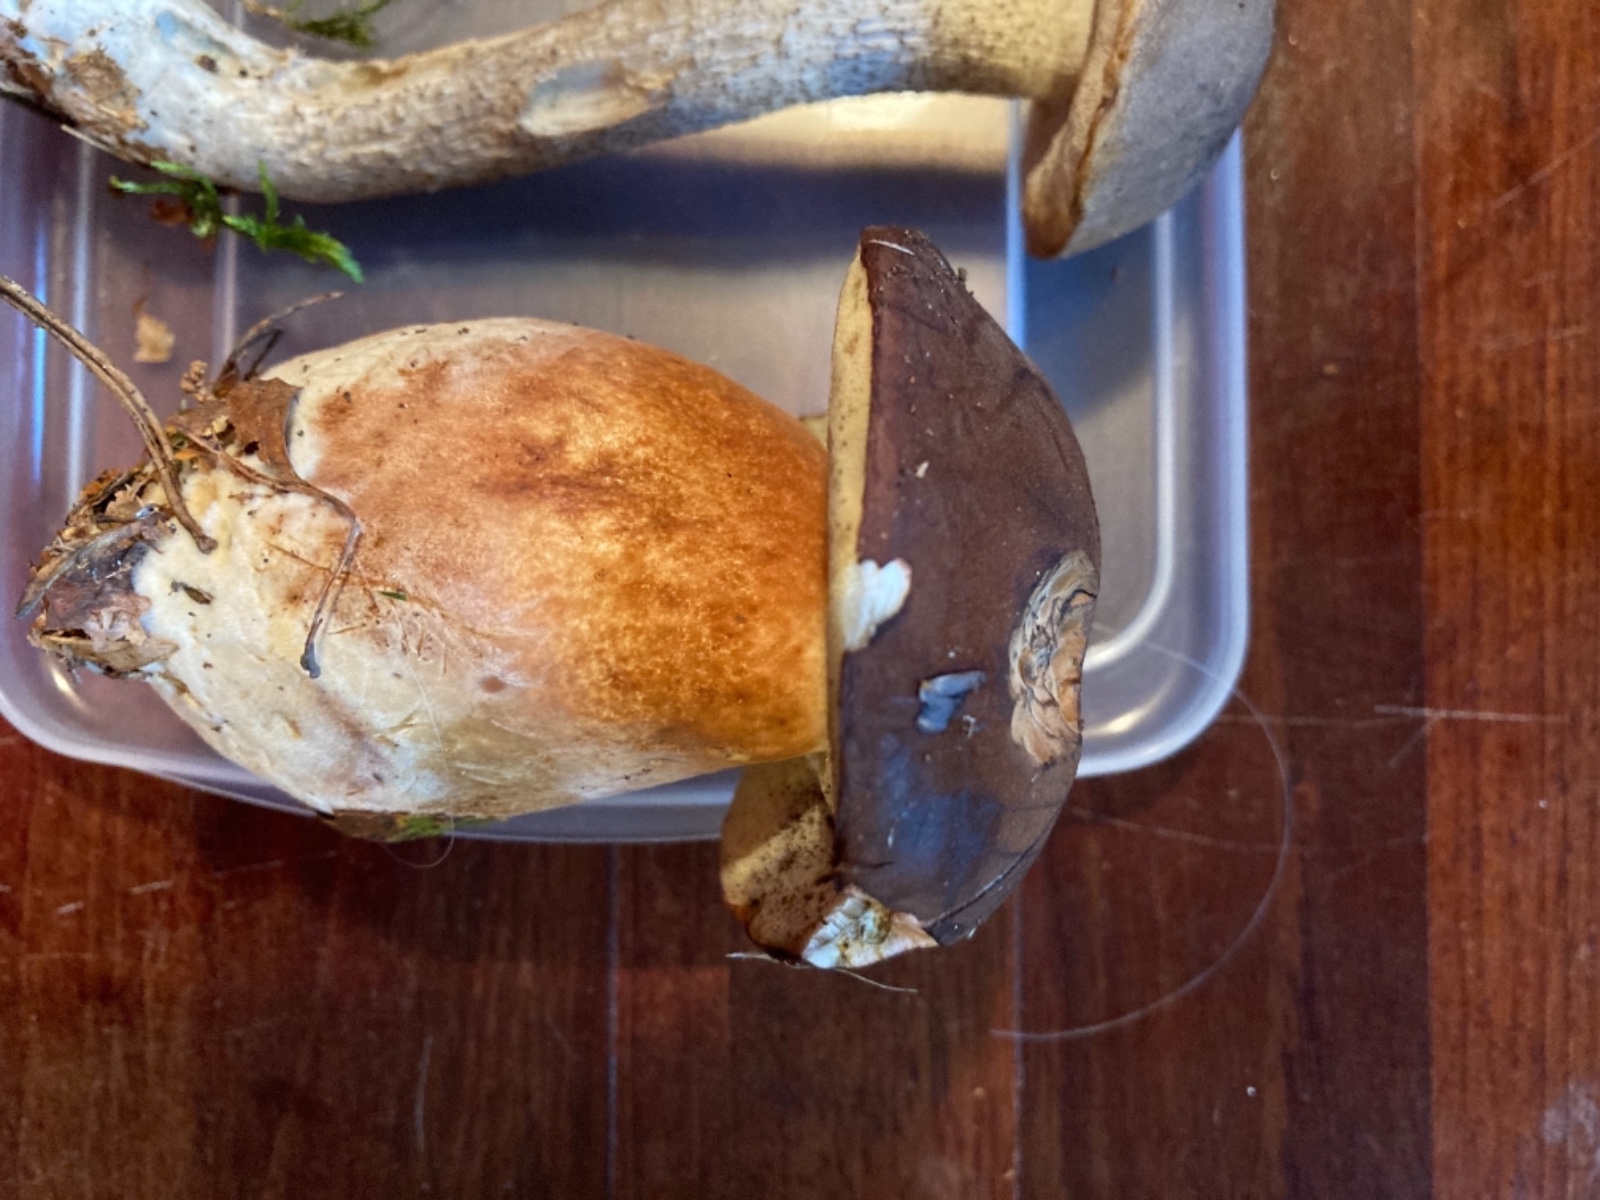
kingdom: Fungi
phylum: Basidiomycota
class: Agaricomycetes
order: Boletales
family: Boletaceae
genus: Imleria
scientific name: Imleria badia
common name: brunstokket rørhat
